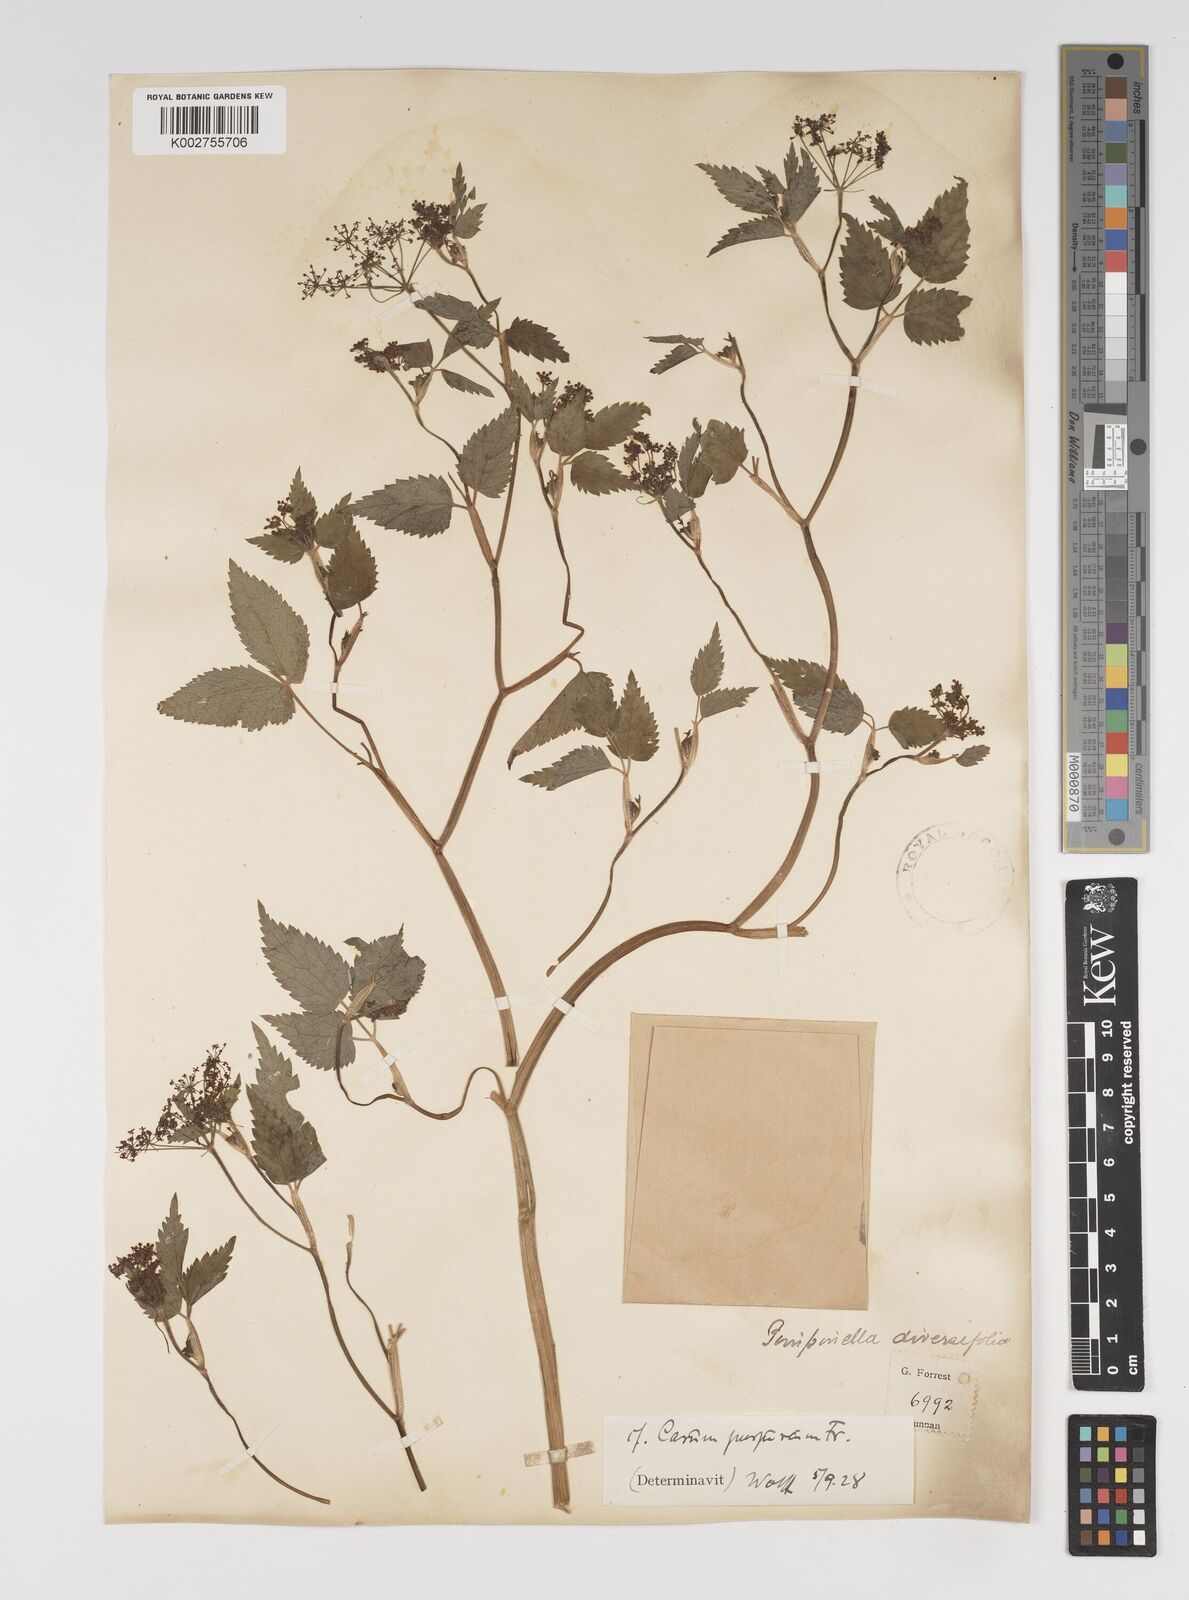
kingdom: Plantae
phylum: Tracheophyta
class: Magnoliopsida
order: Apiales
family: Apiaceae
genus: Pimpinella
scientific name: Pimpinella diversifolia
